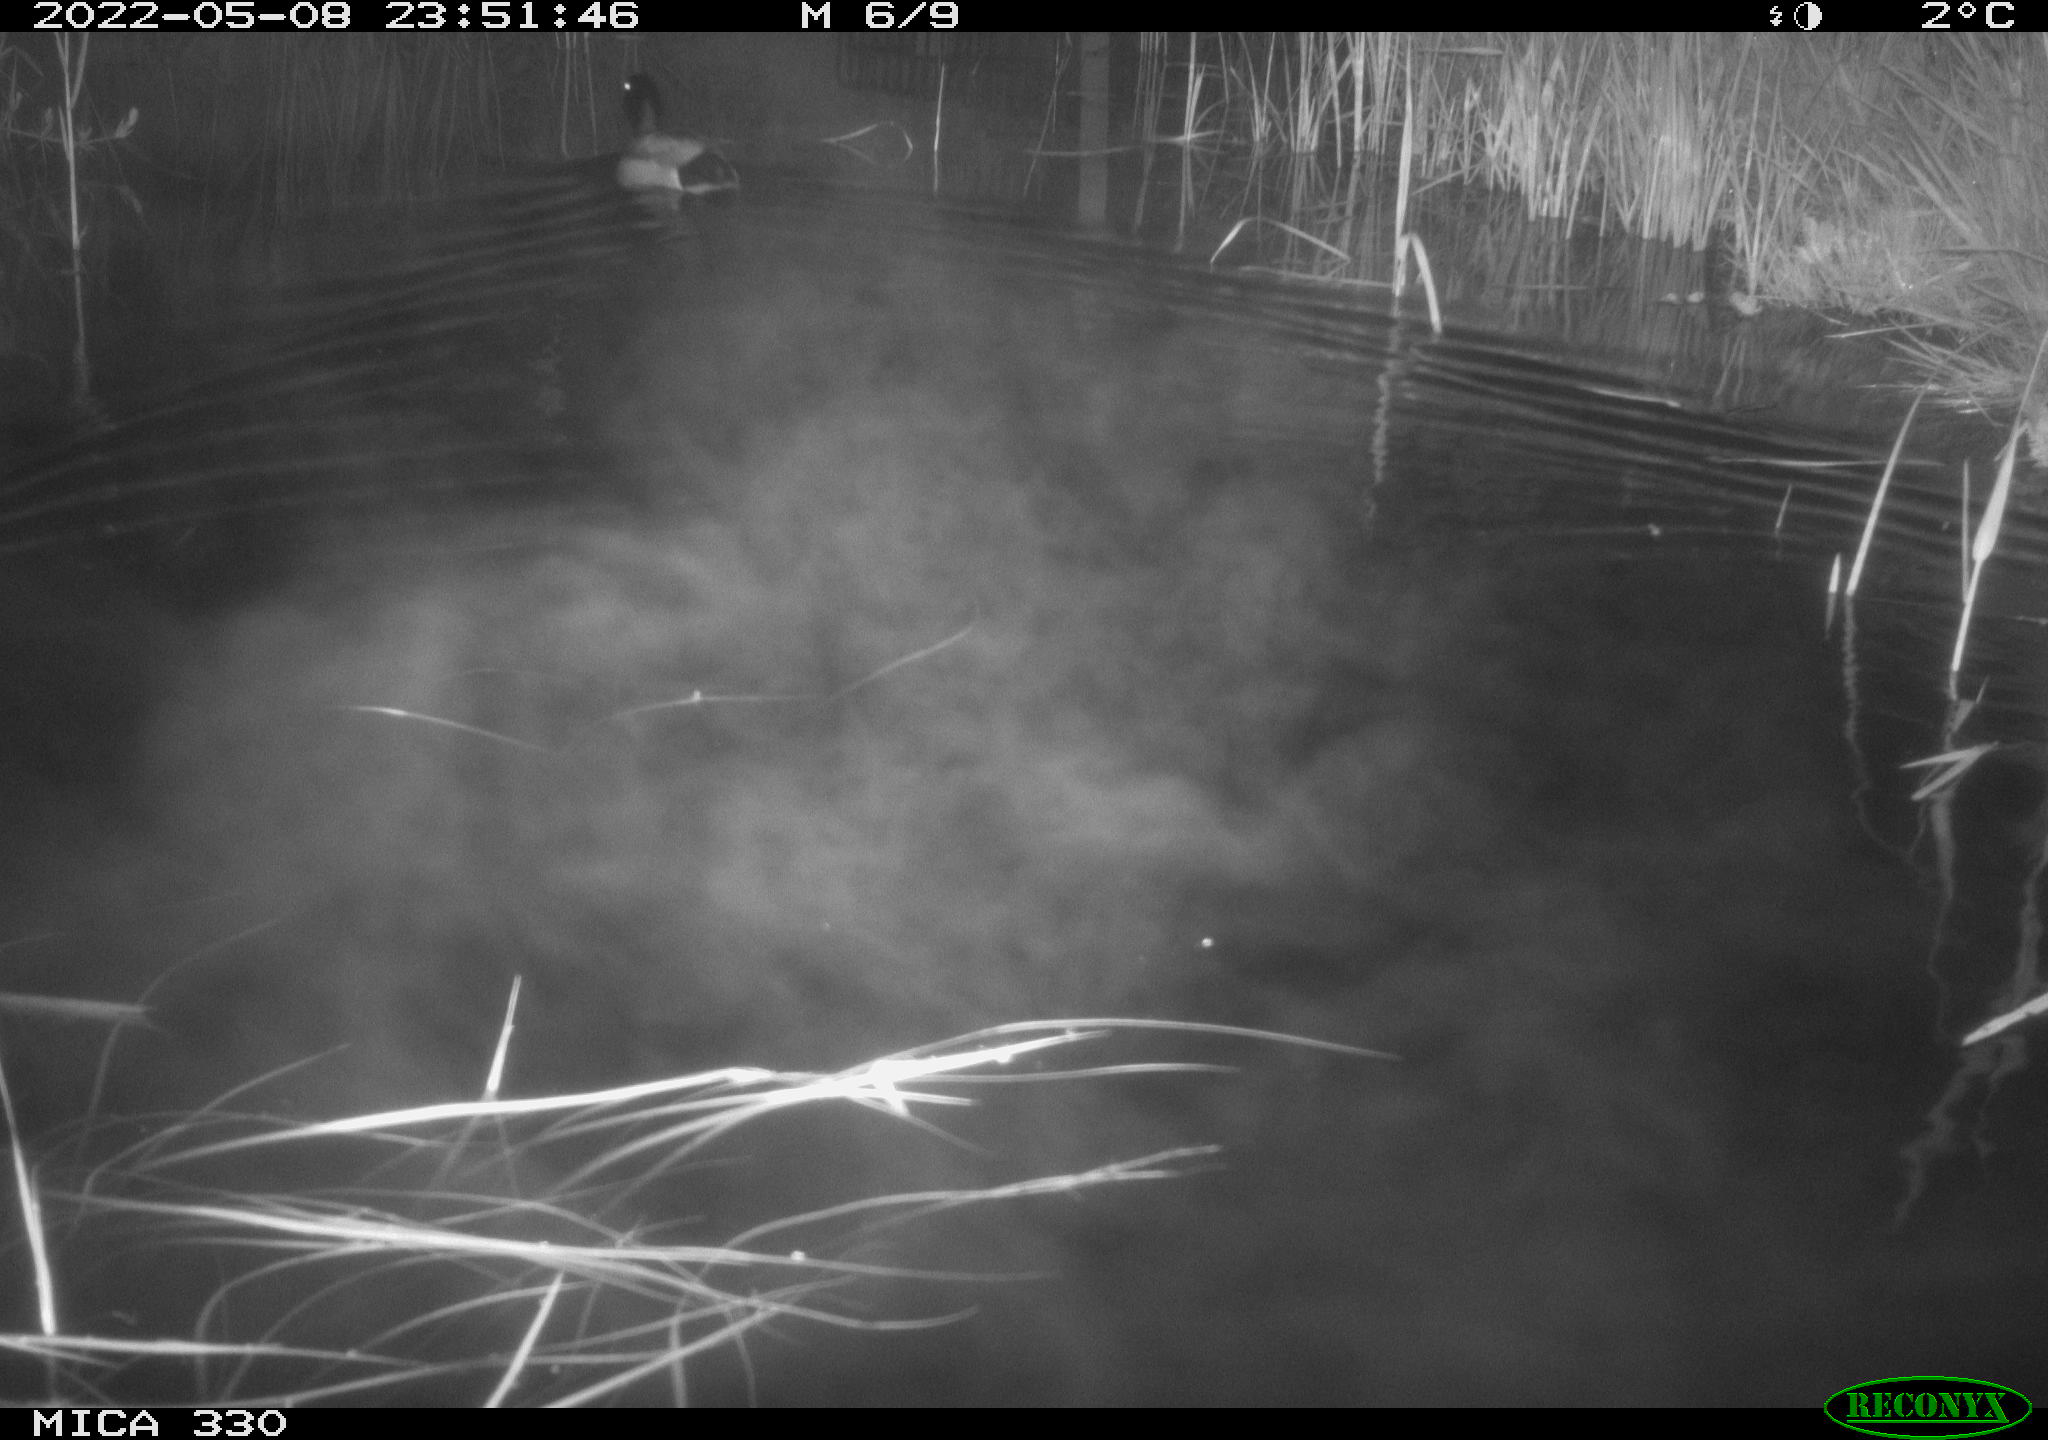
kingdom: Animalia
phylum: Chordata
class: Aves
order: Anseriformes
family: Anatidae
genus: Anas
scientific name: Anas platyrhynchos
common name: Mallard
